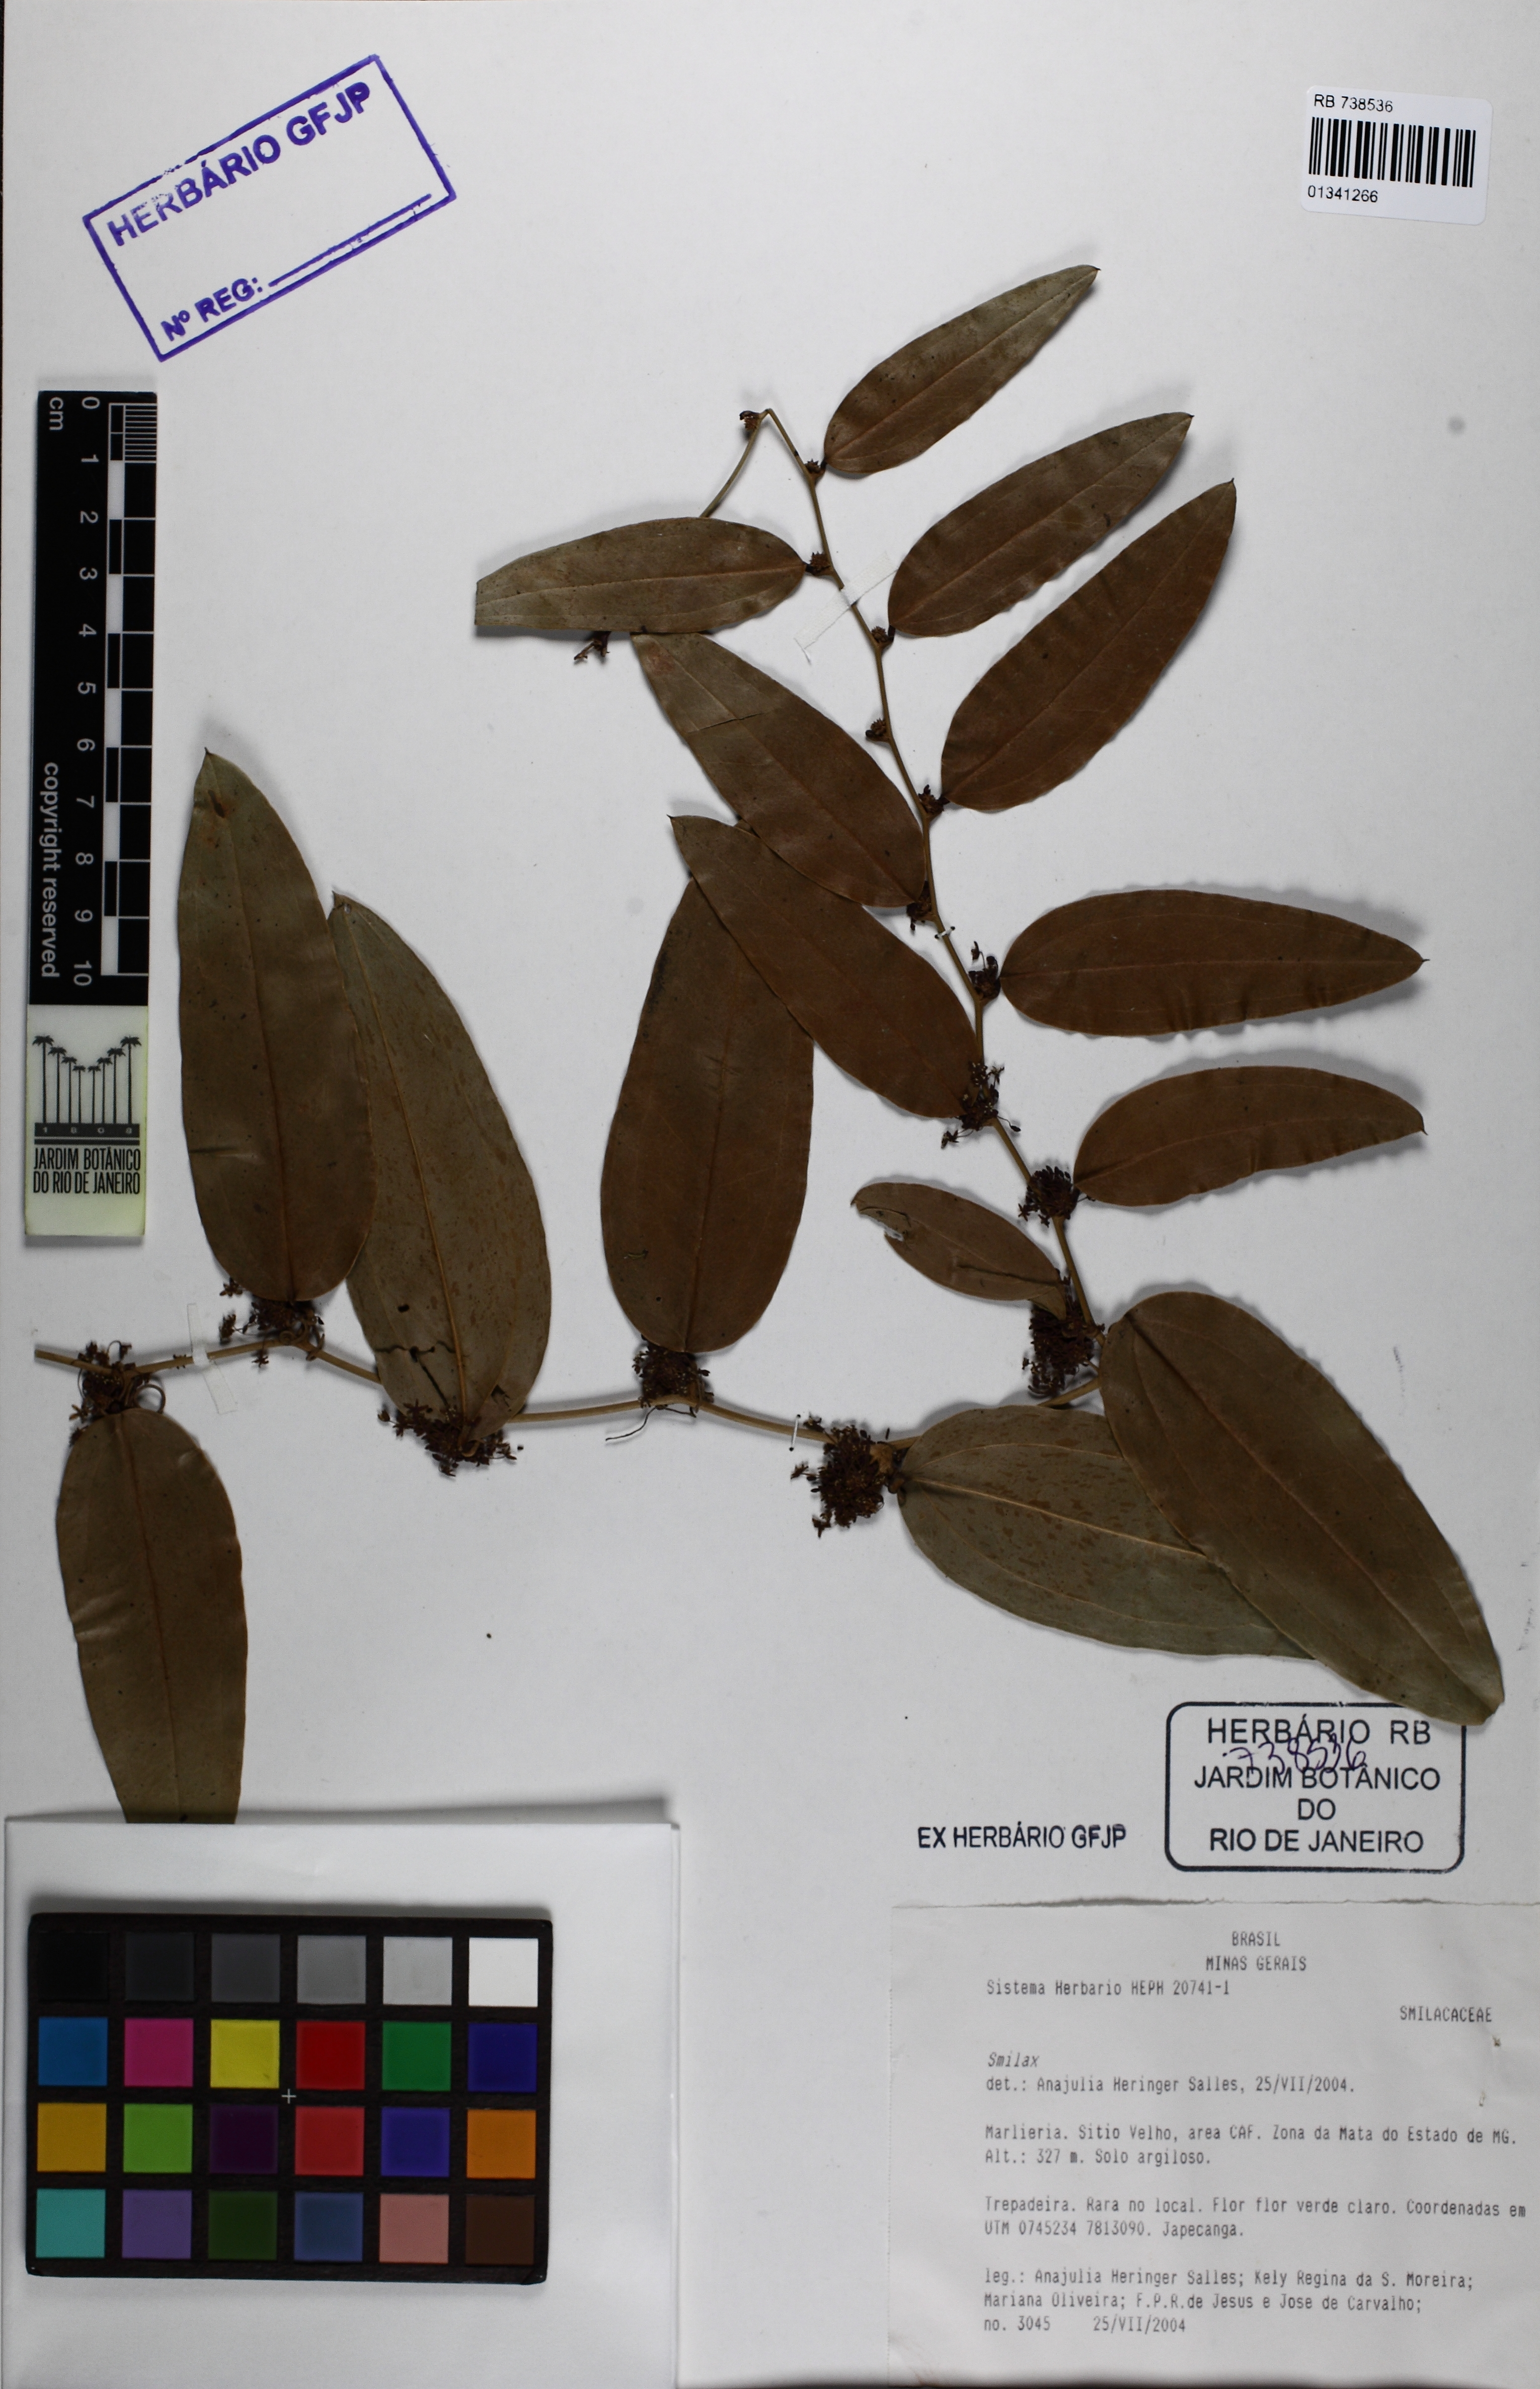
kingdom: Plantae
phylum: Tracheophyta
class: Liliopsida
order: Liliales
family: Smilacaceae
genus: Smilax
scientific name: Smilax lappacea
